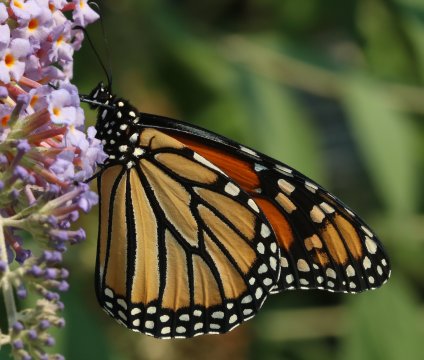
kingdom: Animalia
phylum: Arthropoda
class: Insecta
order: Lepidoptera
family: Nymphalidae
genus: Danaus
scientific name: Danaus plexippus
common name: Monarch
